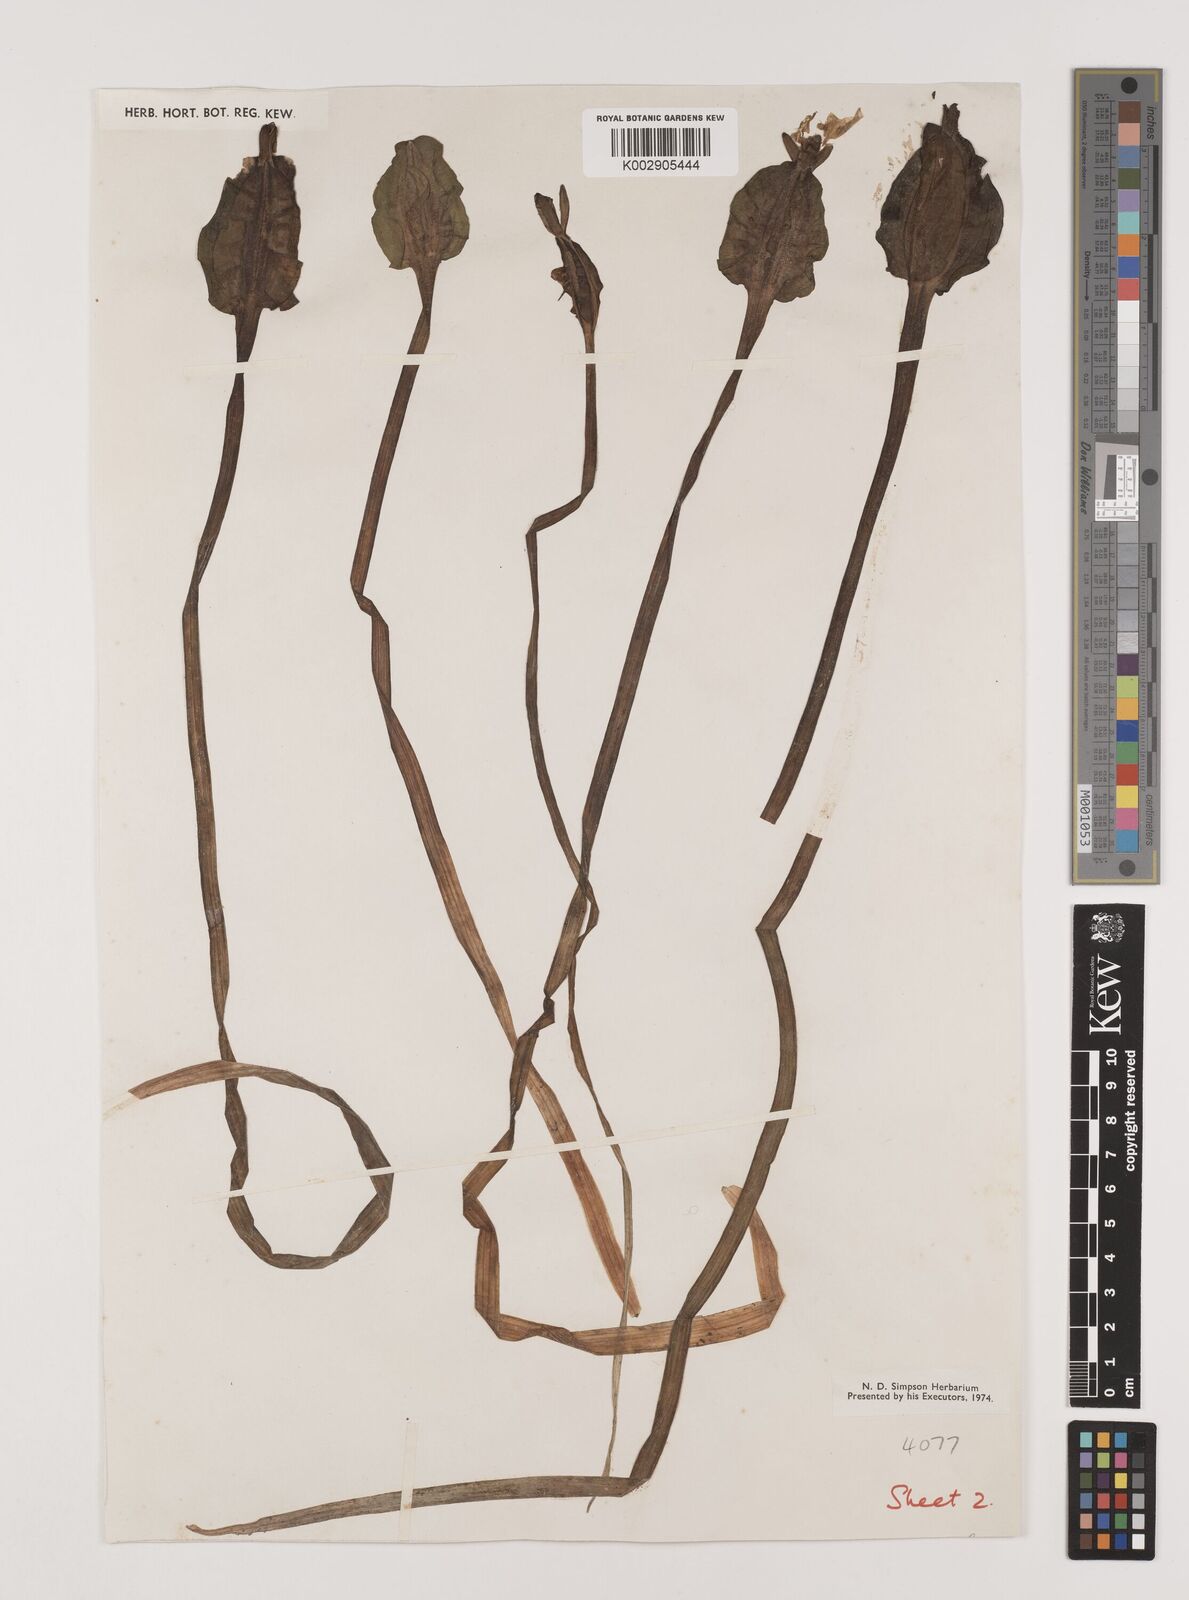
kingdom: Plantae
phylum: Tracheophyta
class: Liliopsida
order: Alismatales
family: Hydrocharitaceae
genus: Ottelia
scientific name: Ottelia alismoides
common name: Duck-lettuce
